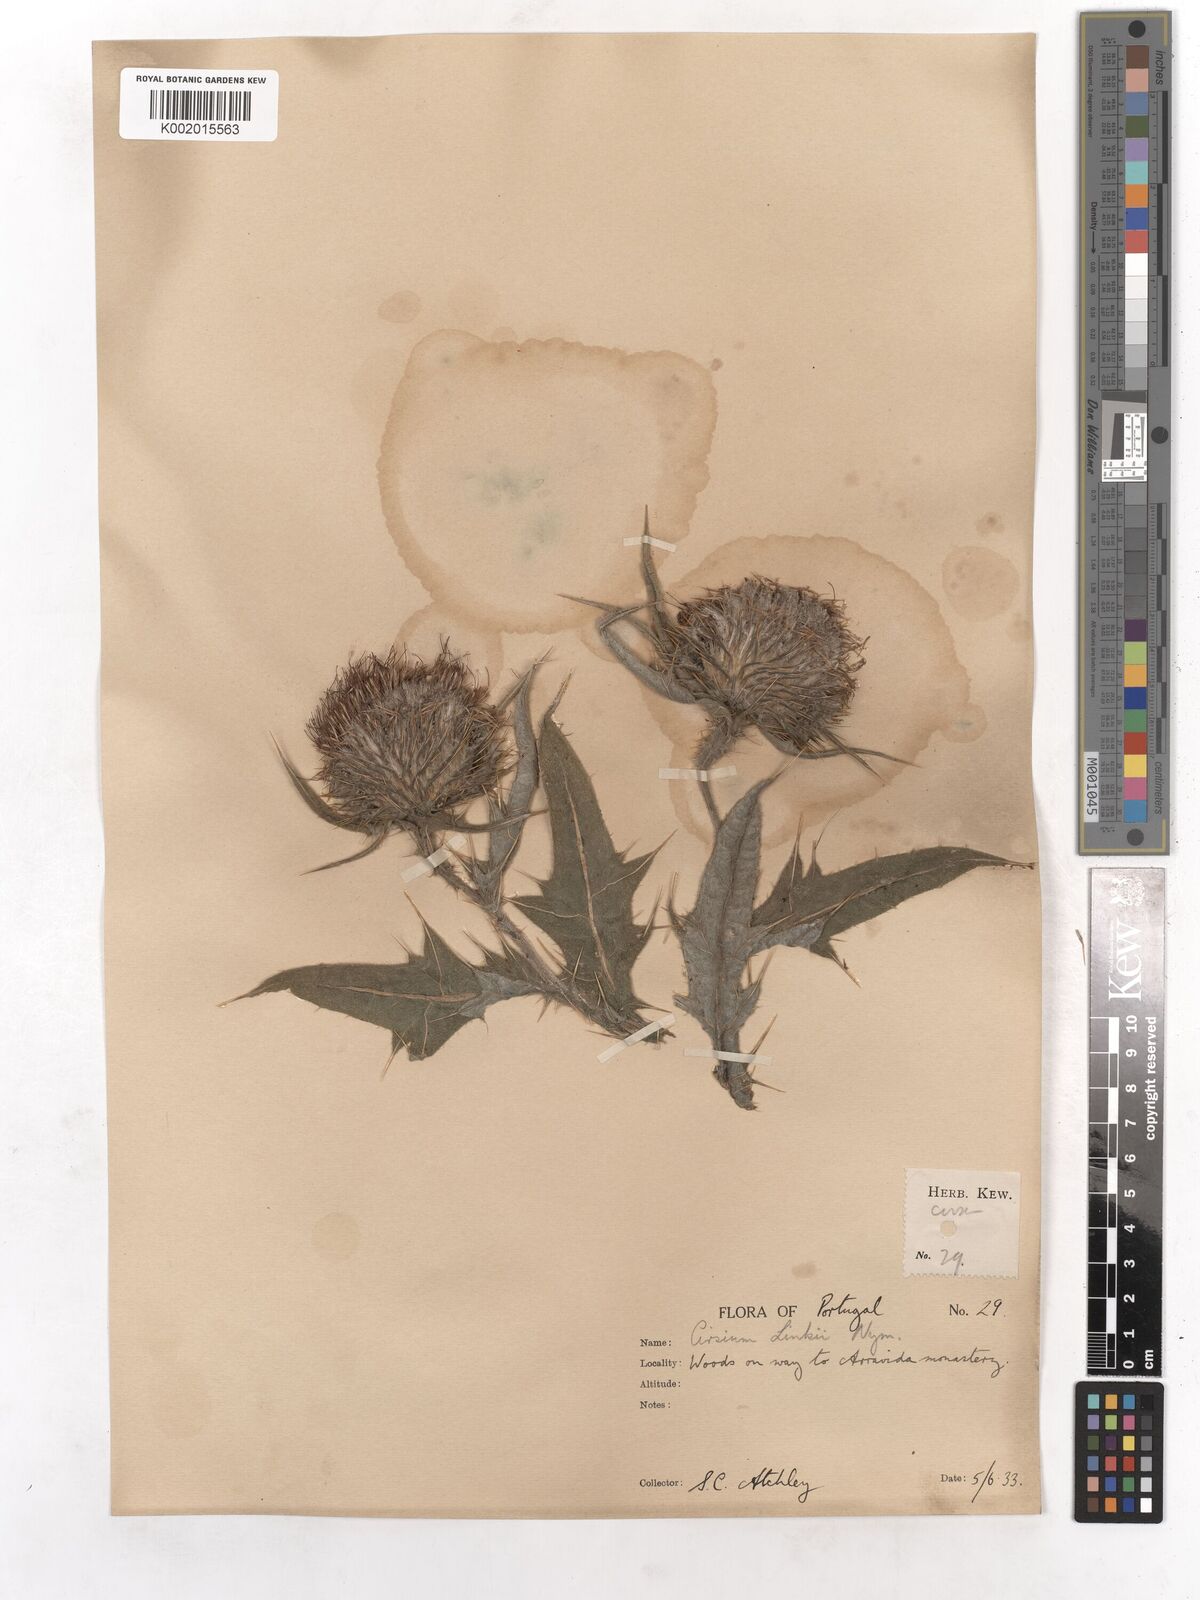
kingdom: Plantae
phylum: Tracheophyta
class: Magnoliopsida
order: Asterales
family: Asteraceae
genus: Cirsium
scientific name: Cirsium vulgare
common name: Bull thistle
